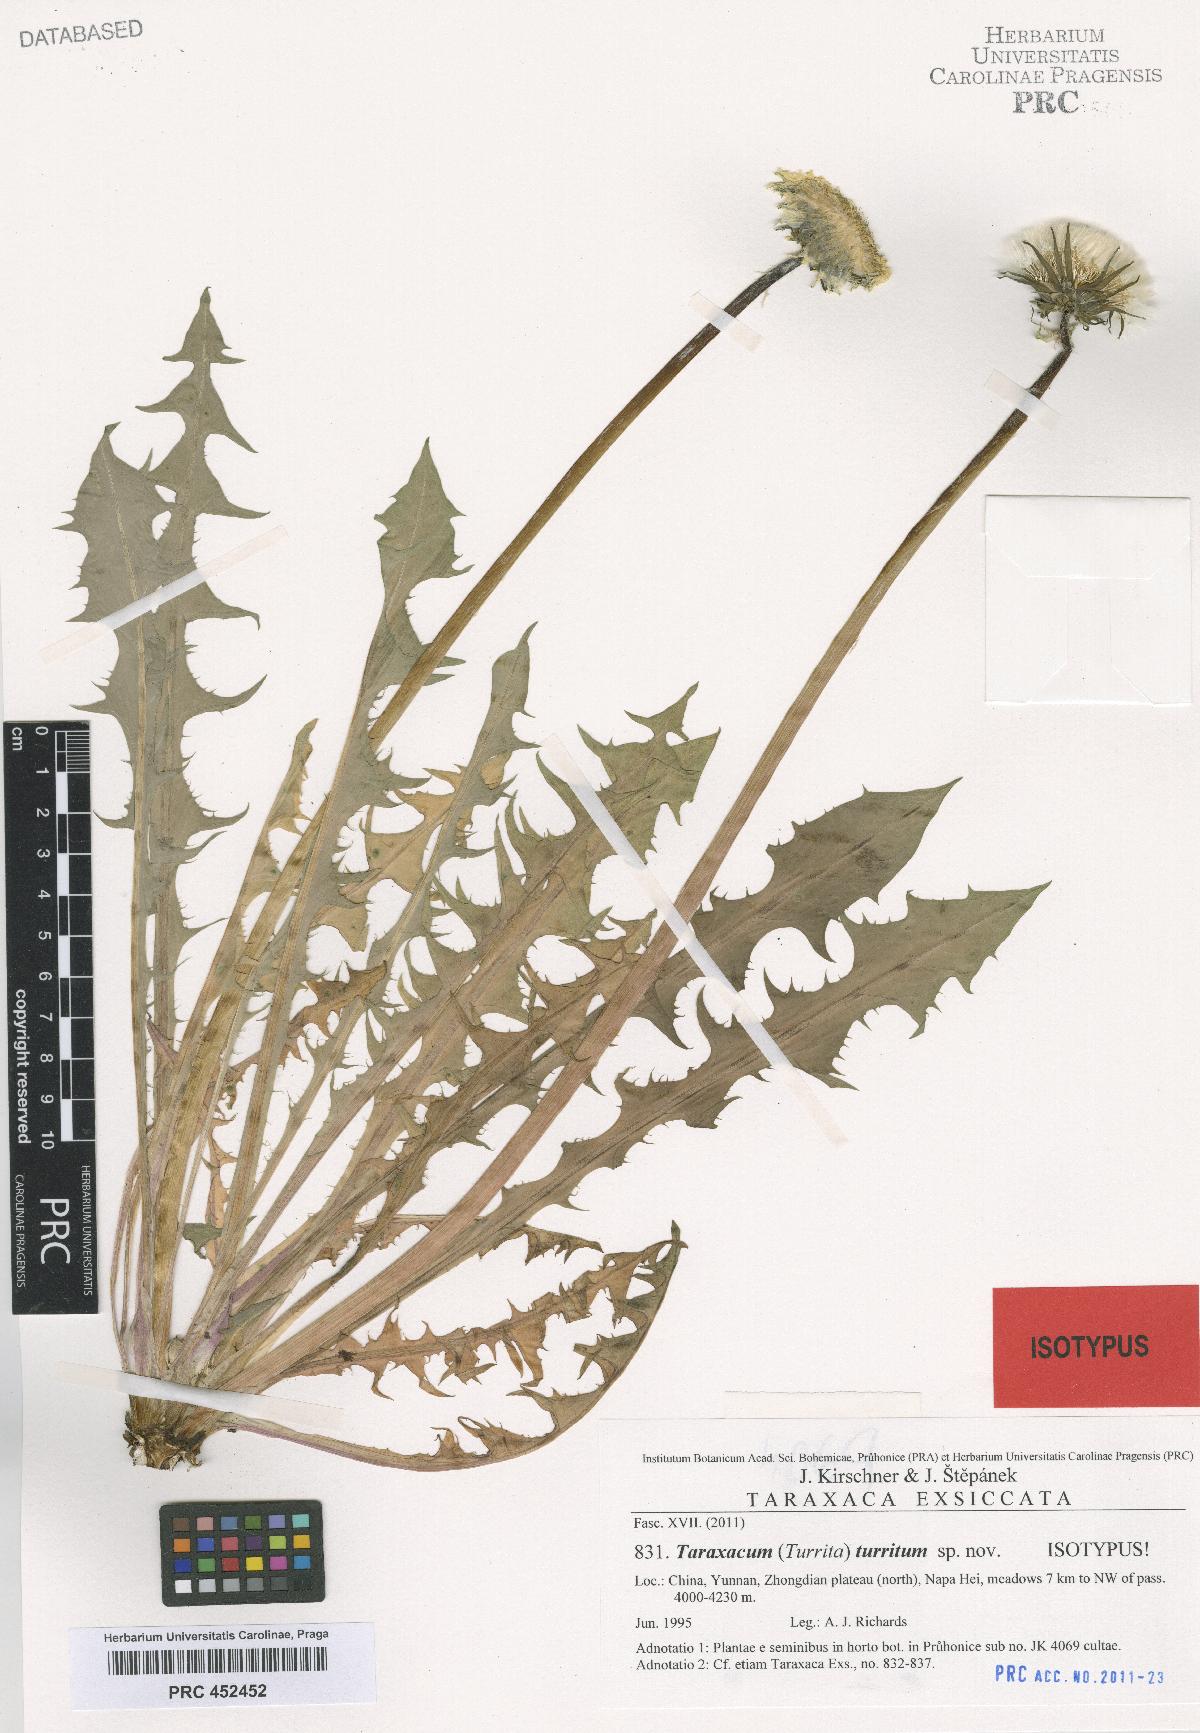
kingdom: Plantae
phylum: Tracheophyta
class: Magnoliopsida
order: Asterales
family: Asteraceae
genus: Taraxacum
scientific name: Taraxacum turritum
